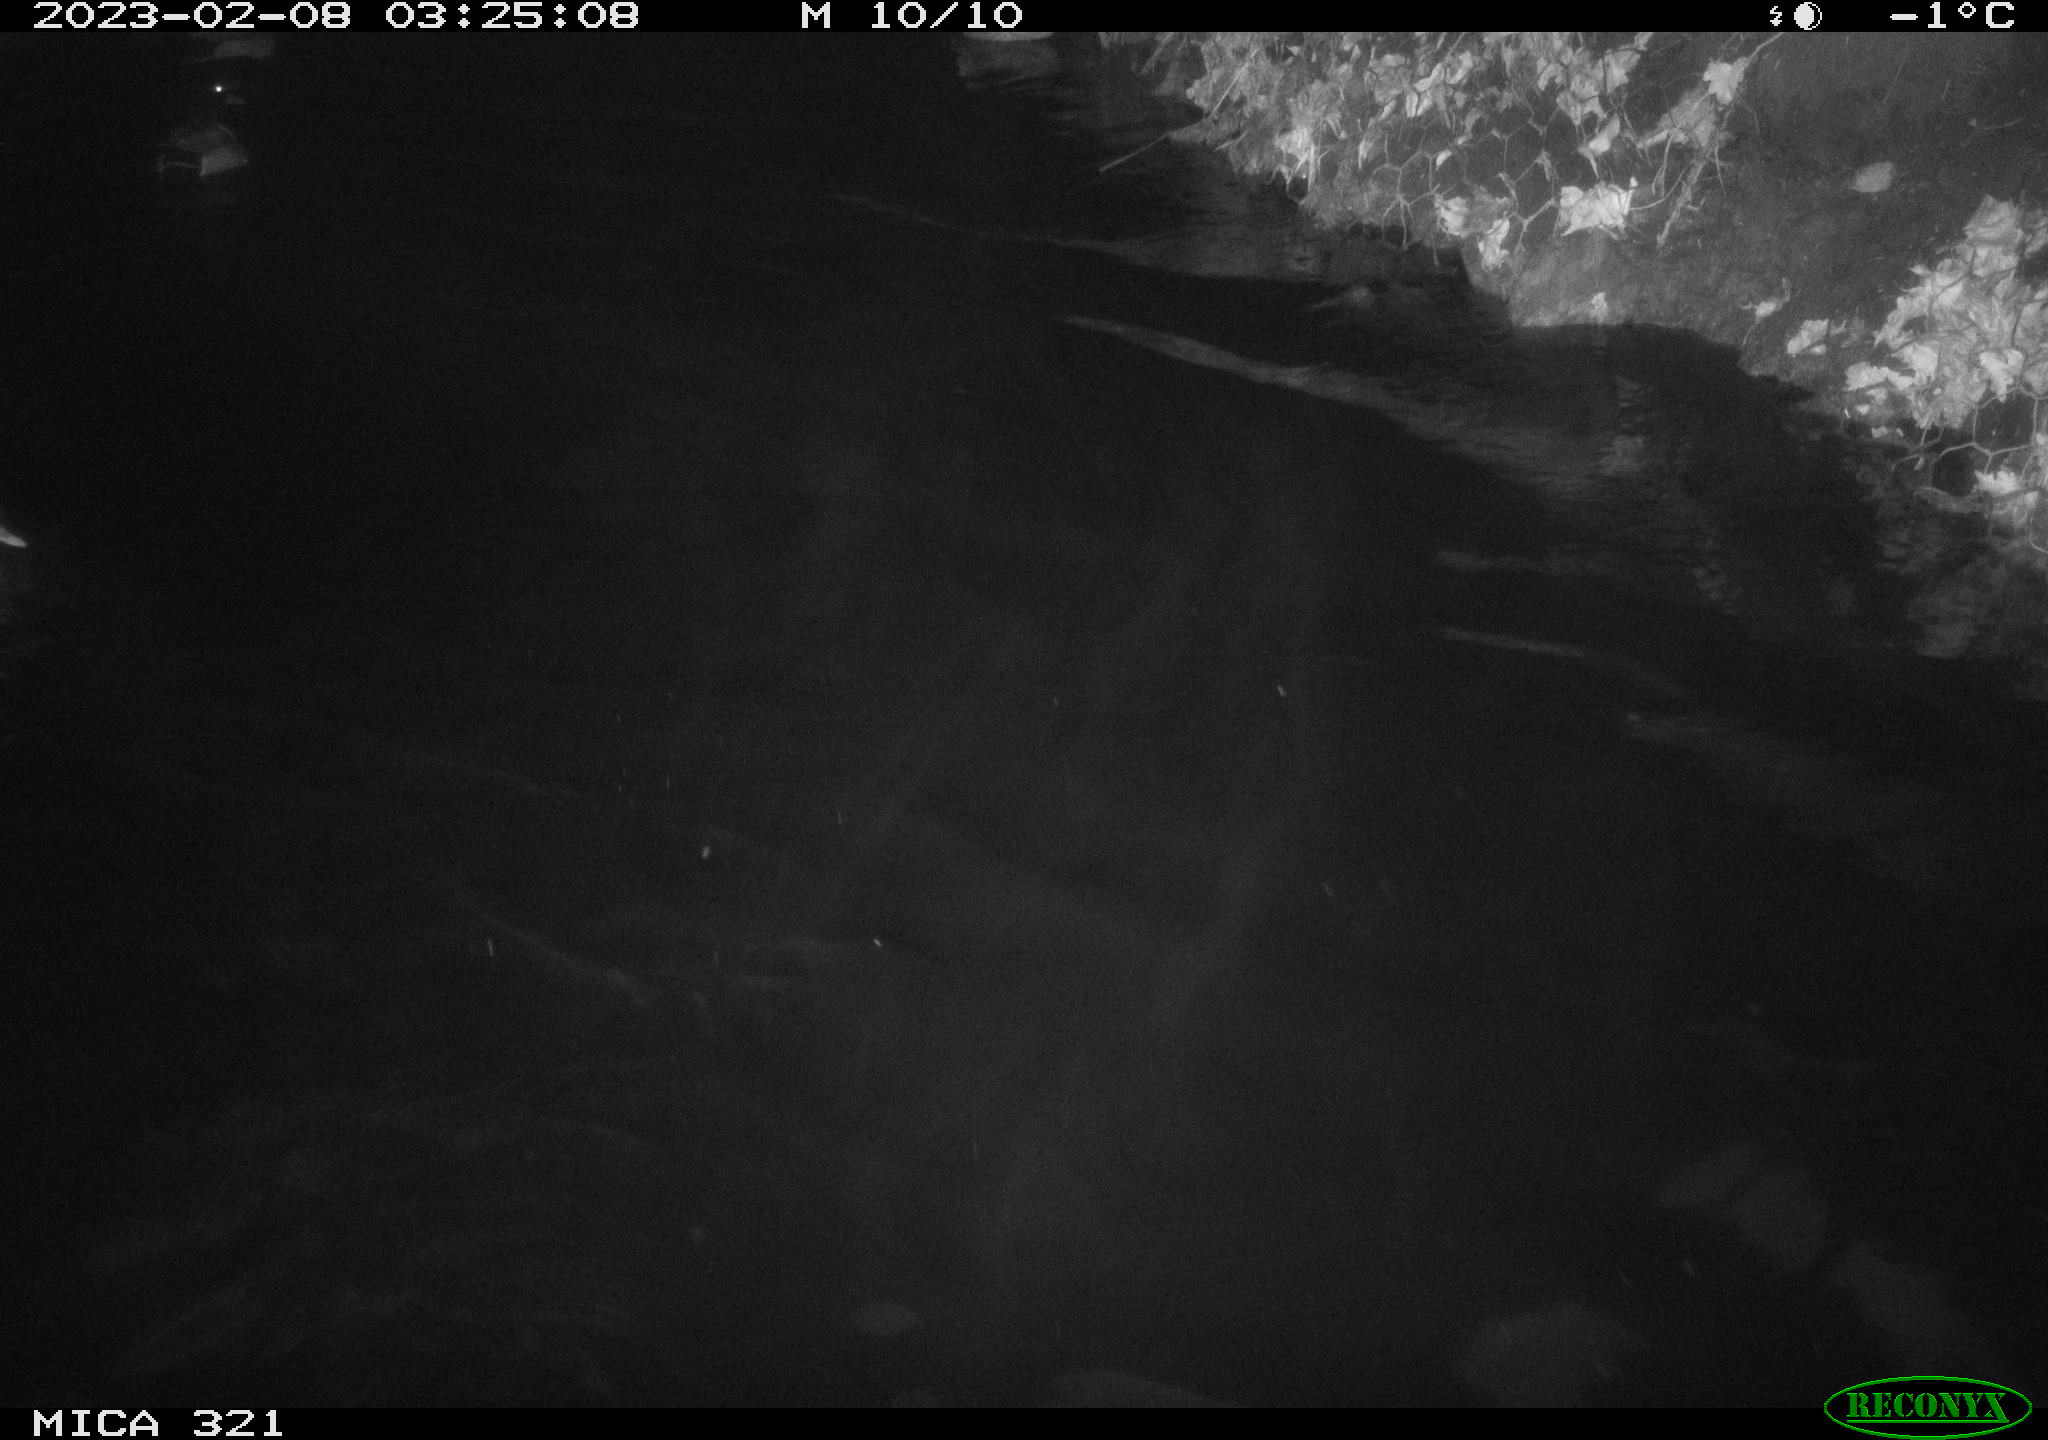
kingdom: Animalia
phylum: Chordata
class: Aves
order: Anseriformes
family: Anatidae
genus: Anas
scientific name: Anas
